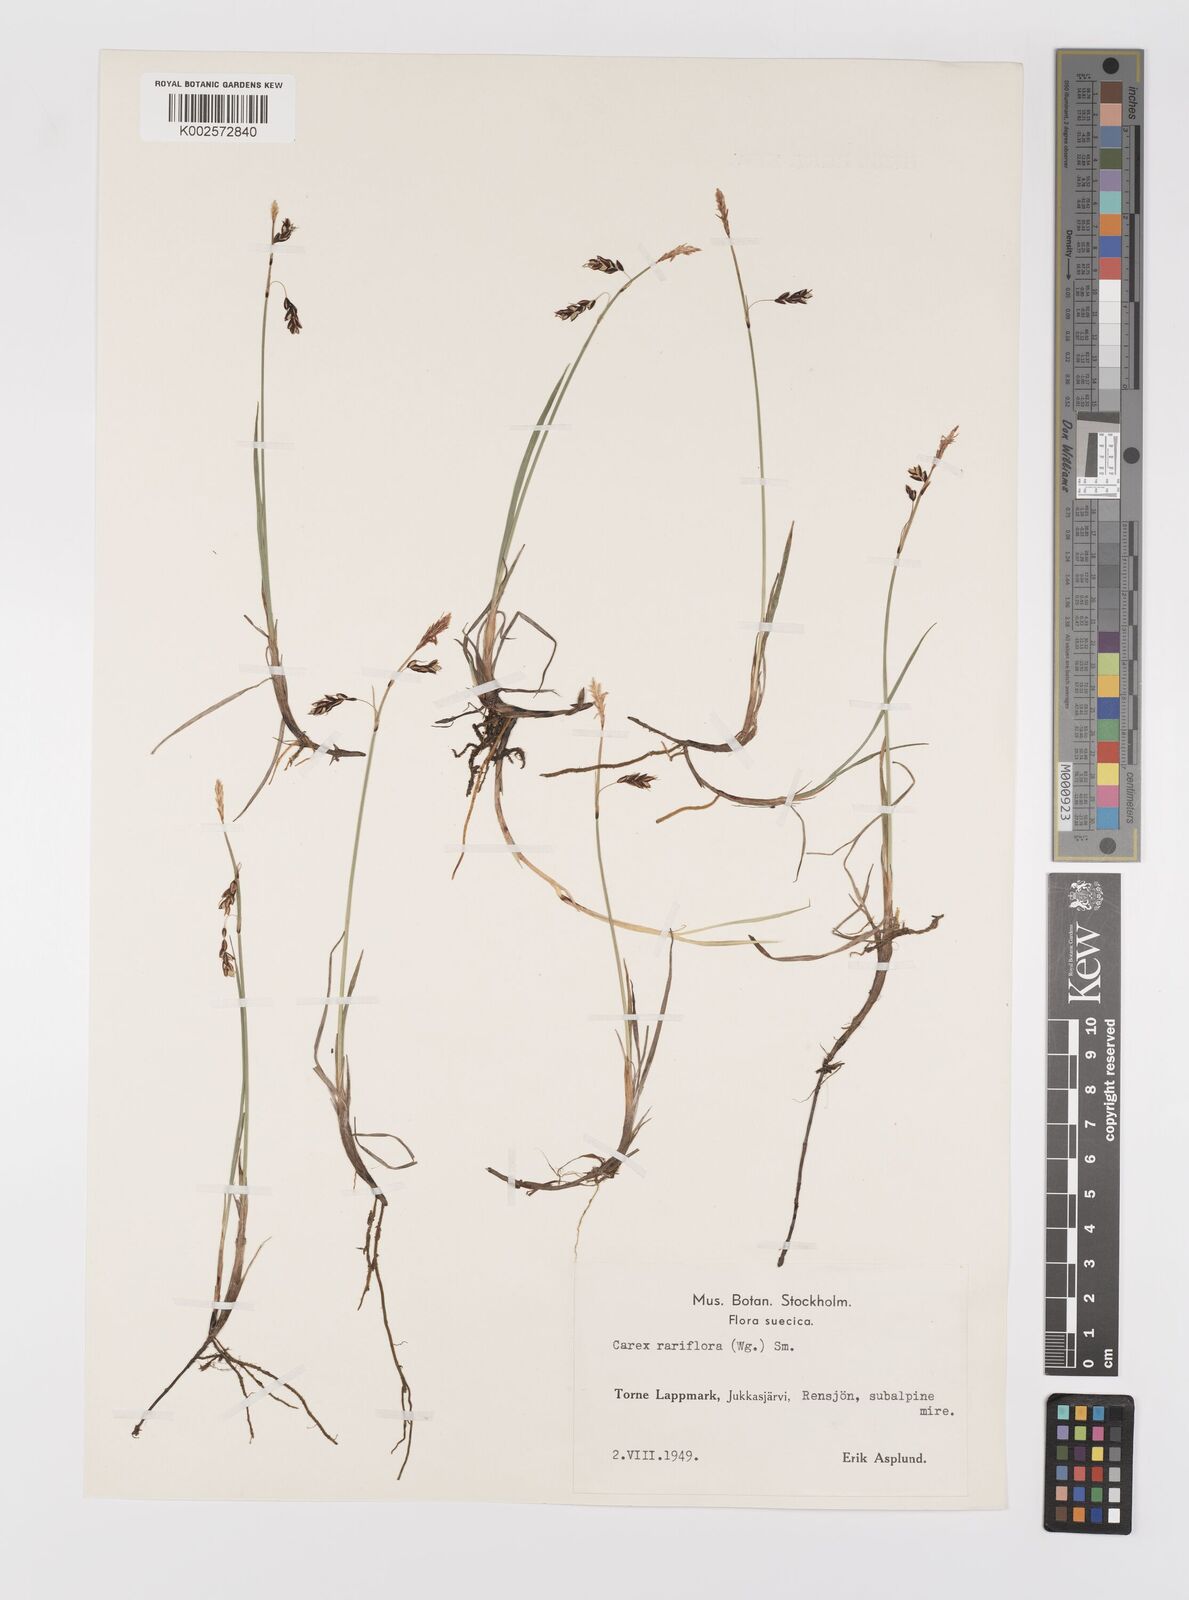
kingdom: Plantae
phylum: Tracheophyta
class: Liliopsida
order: Poales
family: Cyperaceae
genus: Carex
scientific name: Carex rariflora
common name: Loose-flowered alpine sedge
